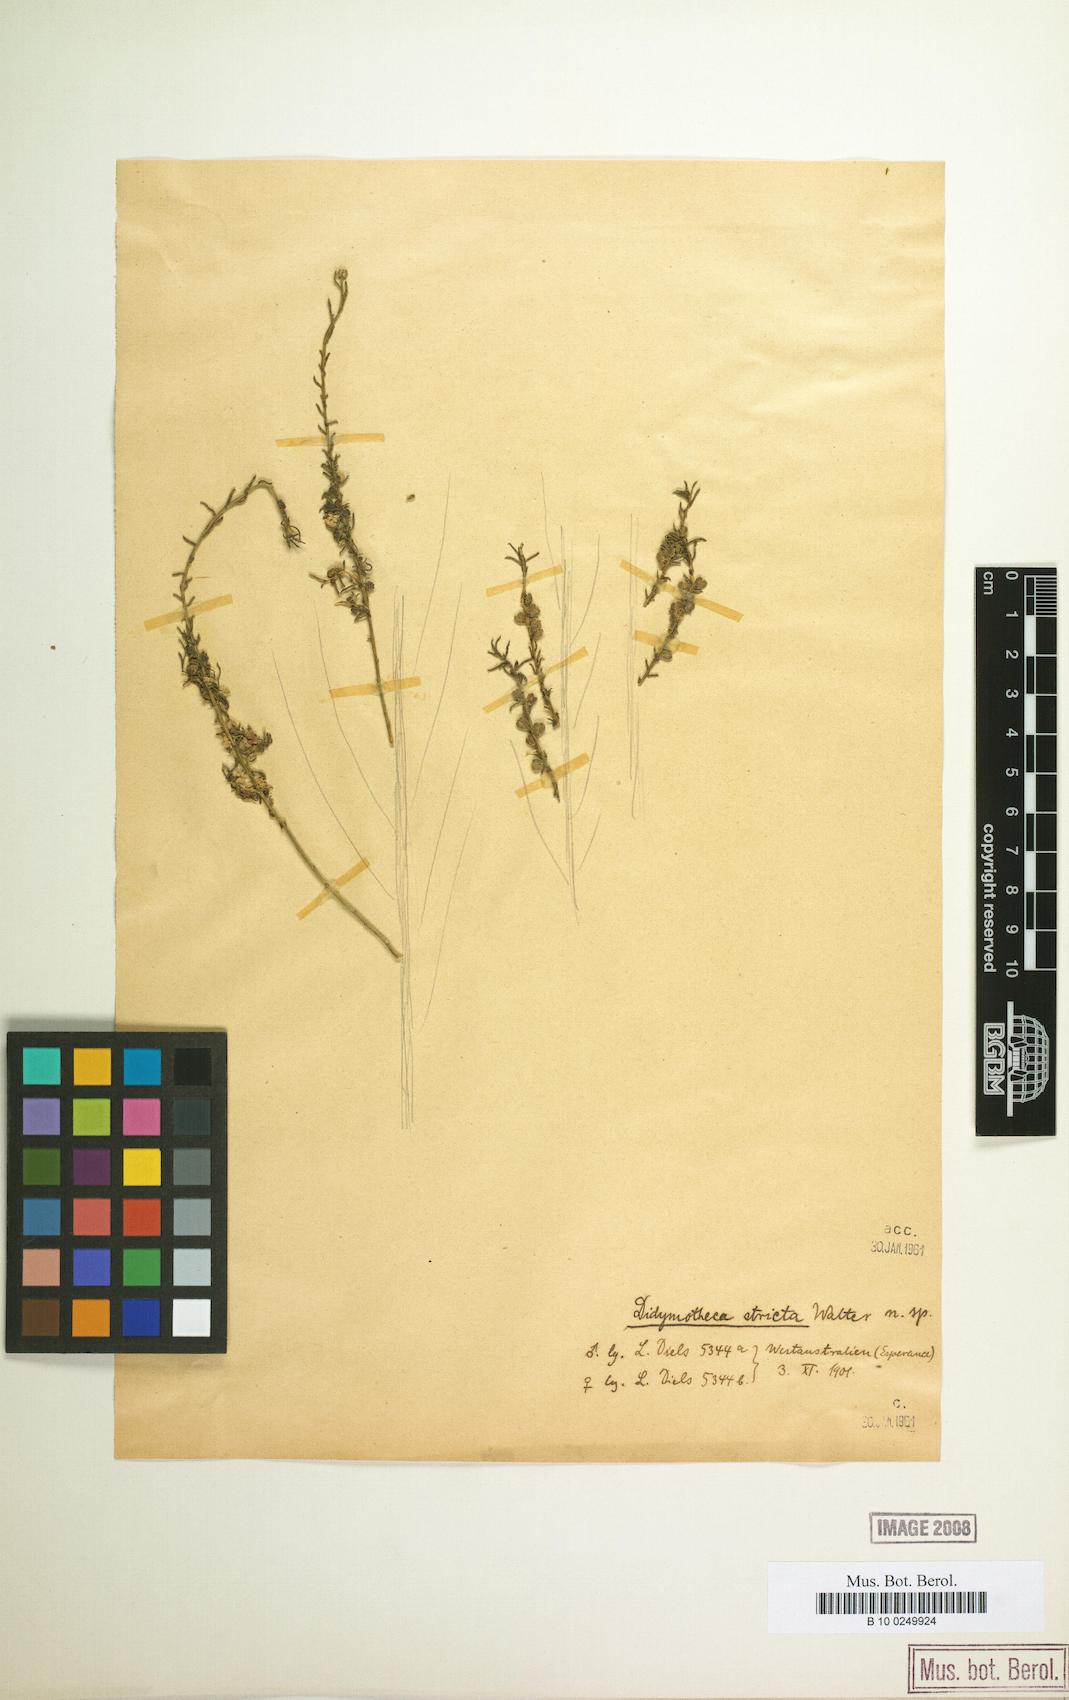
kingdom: Plantae
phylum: Tracheophyta
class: Magnoliopsida
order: Brassicales
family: Gyrostemonaceae
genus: Gyrostemon
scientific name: Gyrostemon
